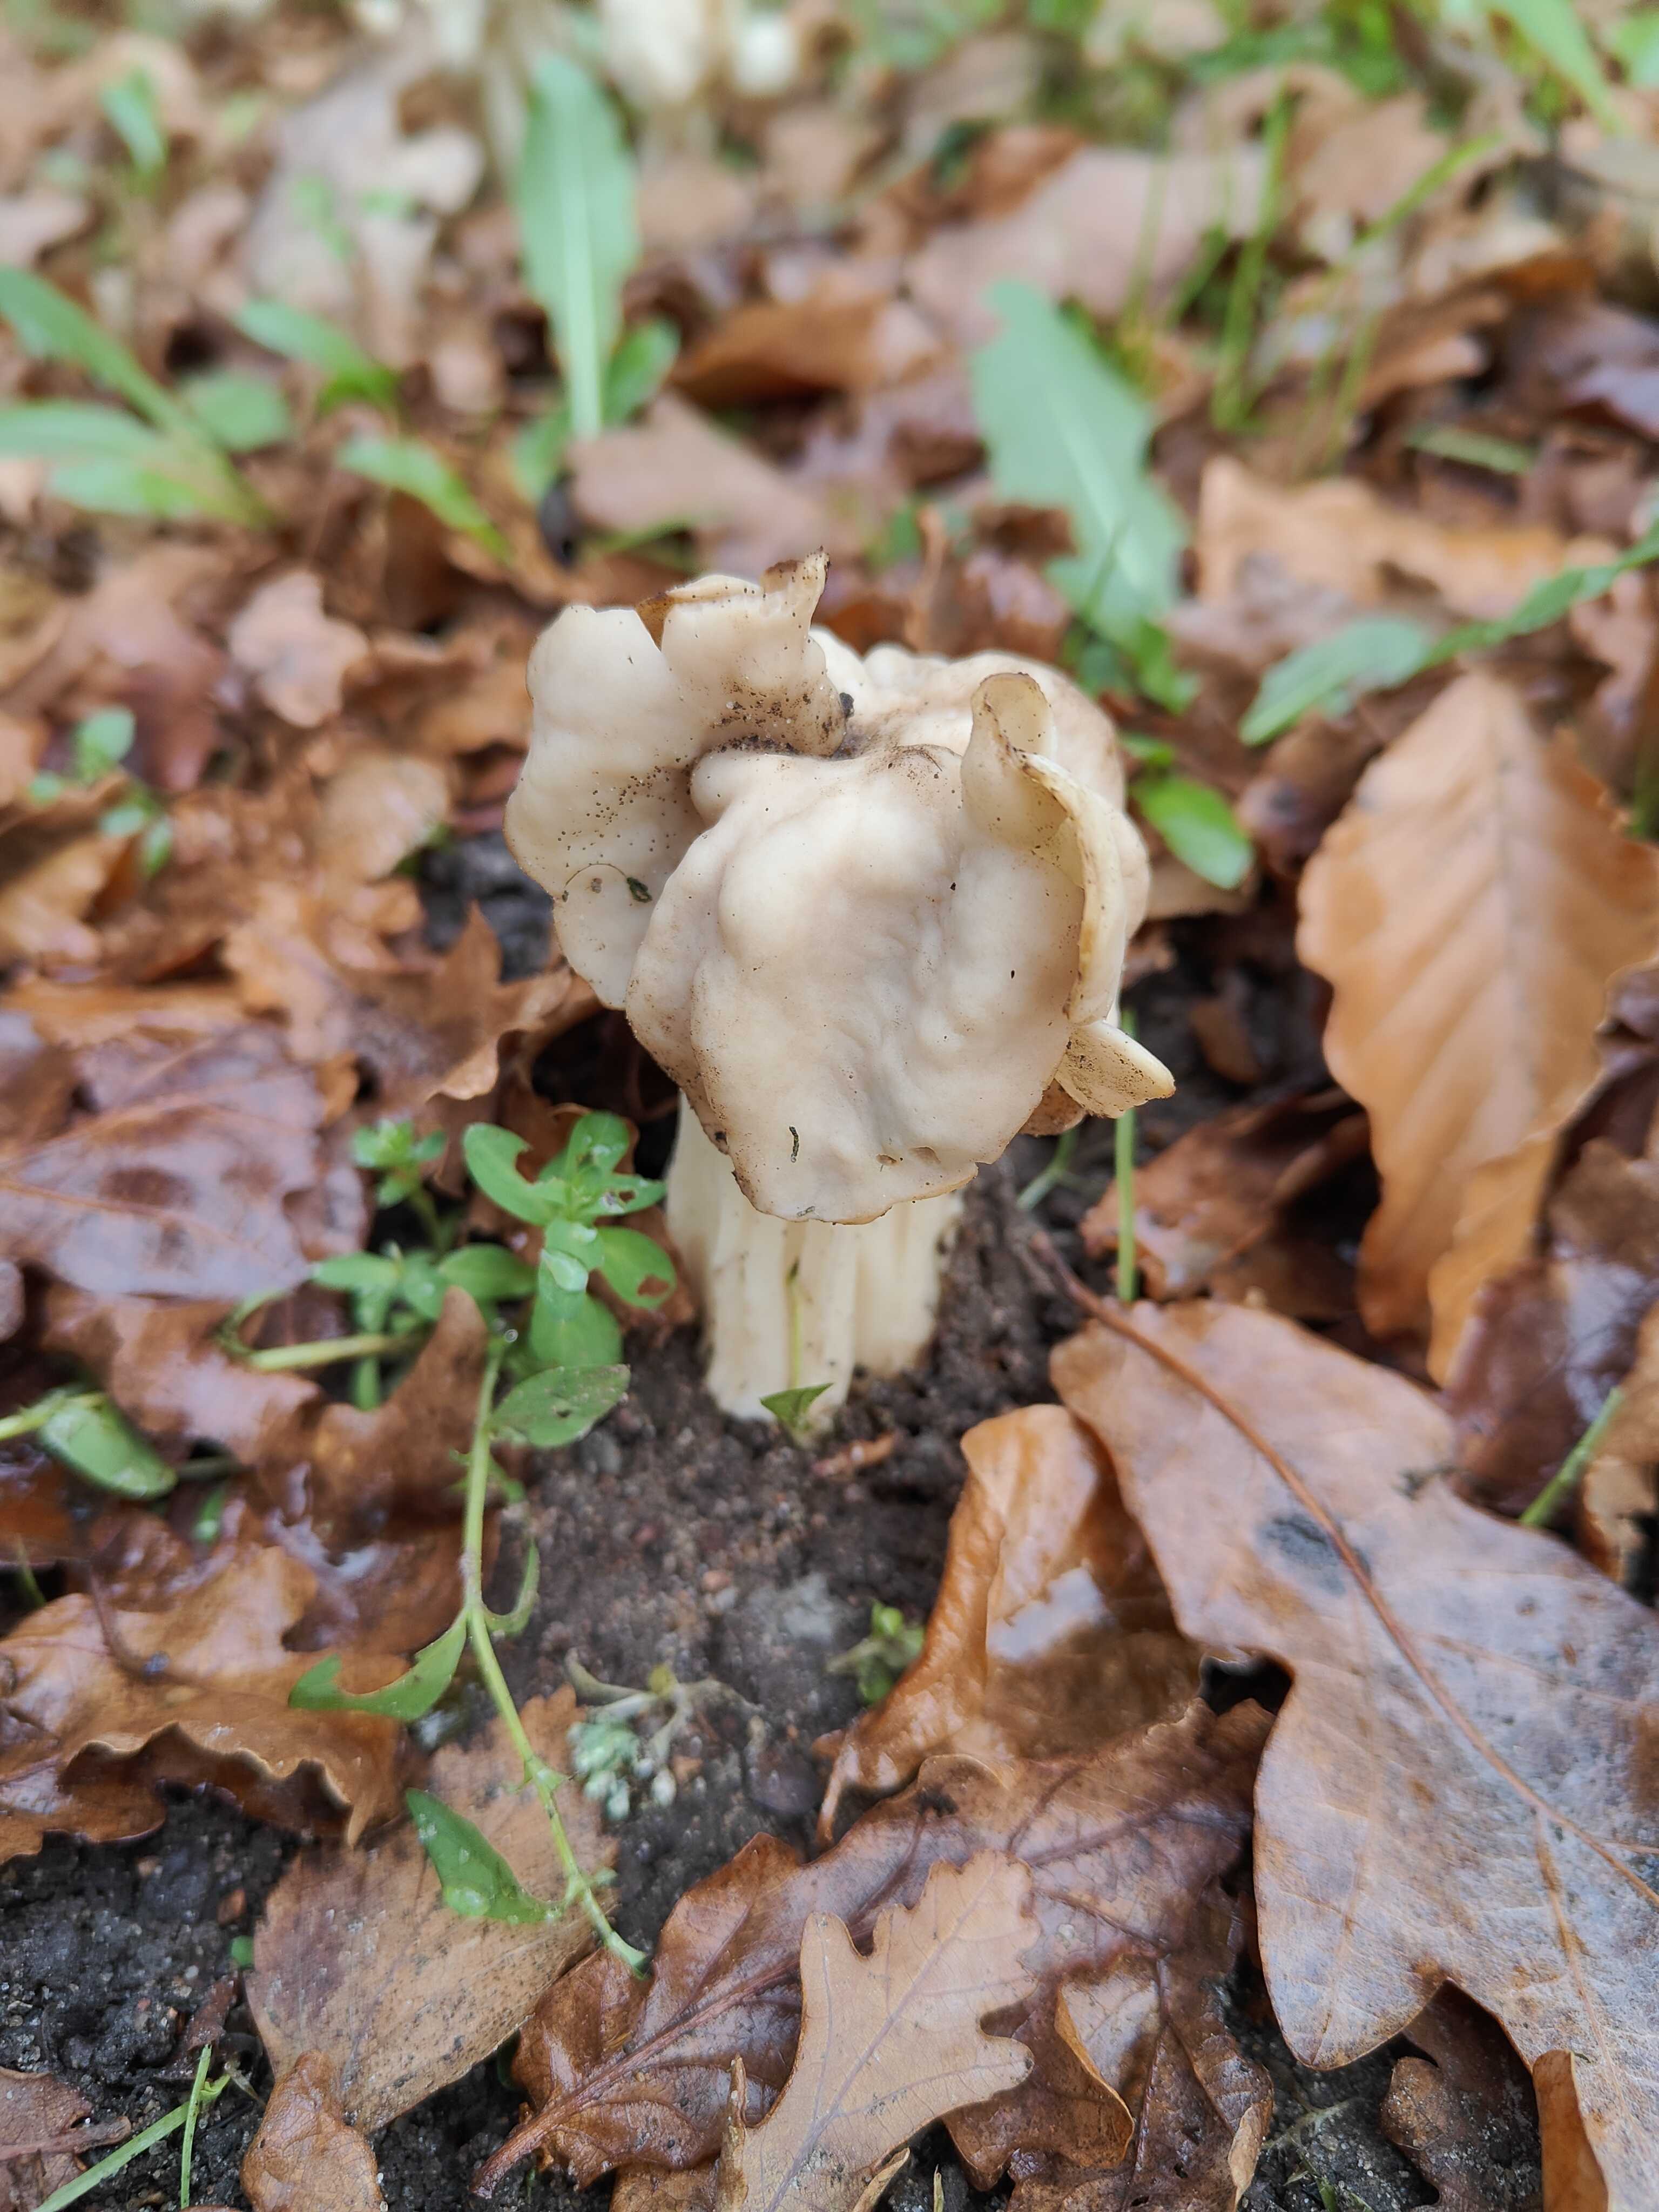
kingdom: Fungi
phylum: Ascomycota
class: Pezizomycetes
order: Pezizales
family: Helvellaceae
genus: Helvella
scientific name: Helvella crispa
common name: kruset foldhat
